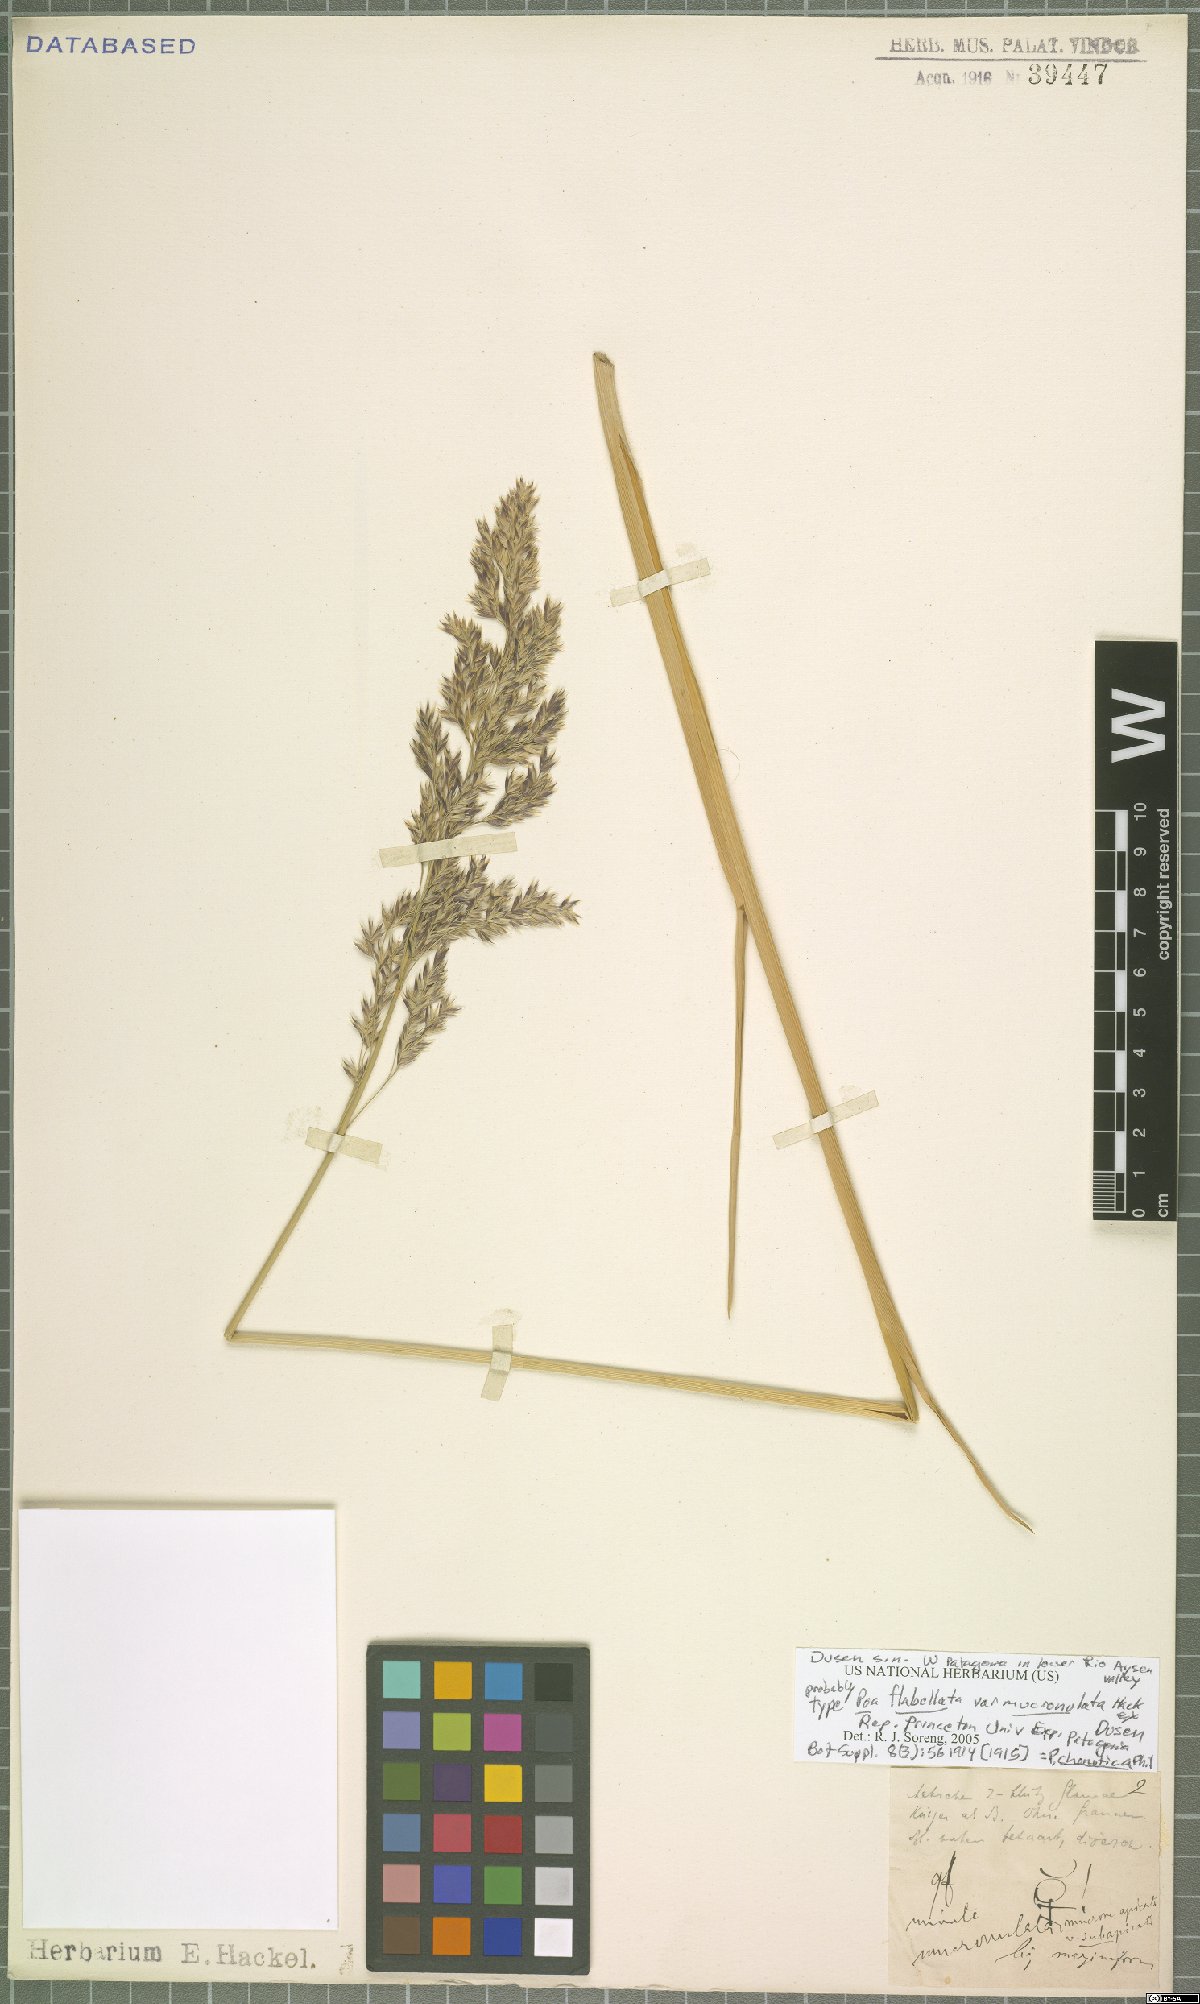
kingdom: Plantae
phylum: Tracheophyta
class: Liliopsida
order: Poales
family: Poaceae
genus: Nicoraepoa
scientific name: Nicoraepoa chonotica
